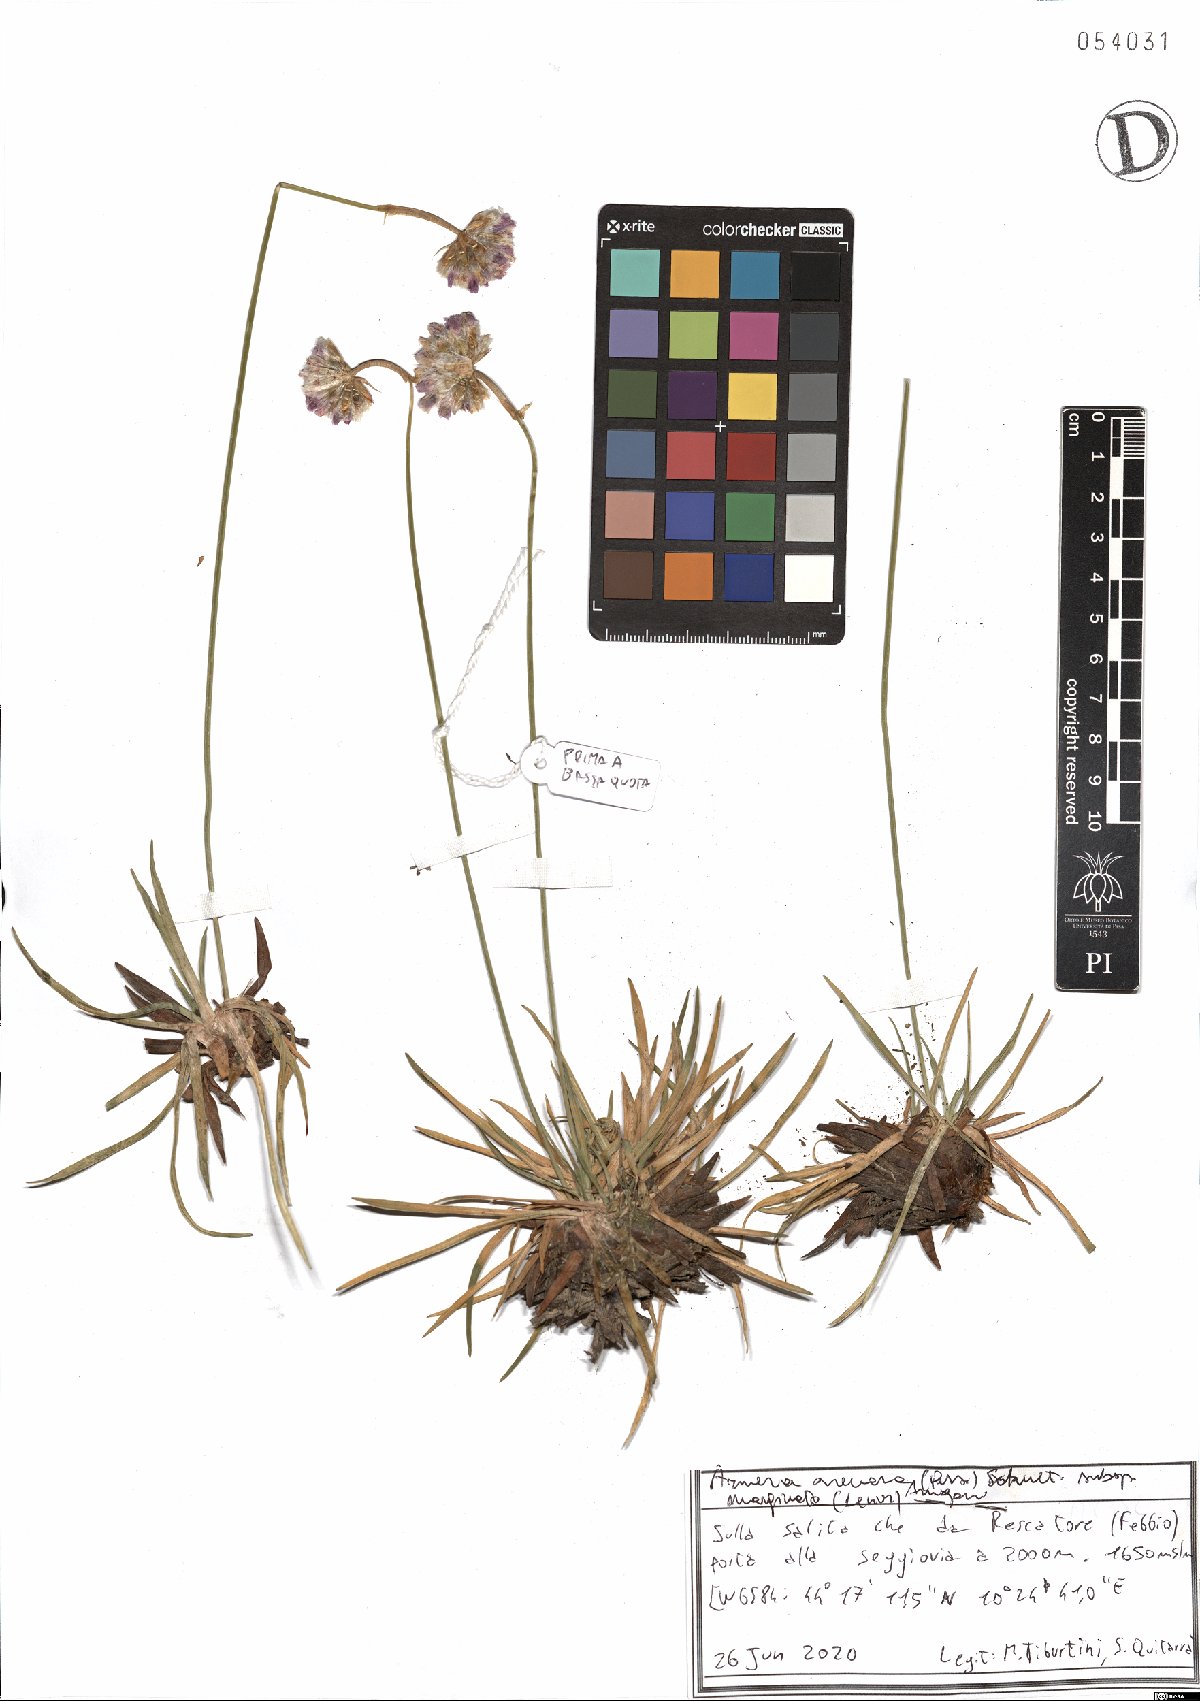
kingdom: Plantae
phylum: Tracheophyta
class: Magnoliopsida
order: Caryophyllales
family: Plumbaginaceae
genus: Armeria
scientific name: Armeria arenaria
